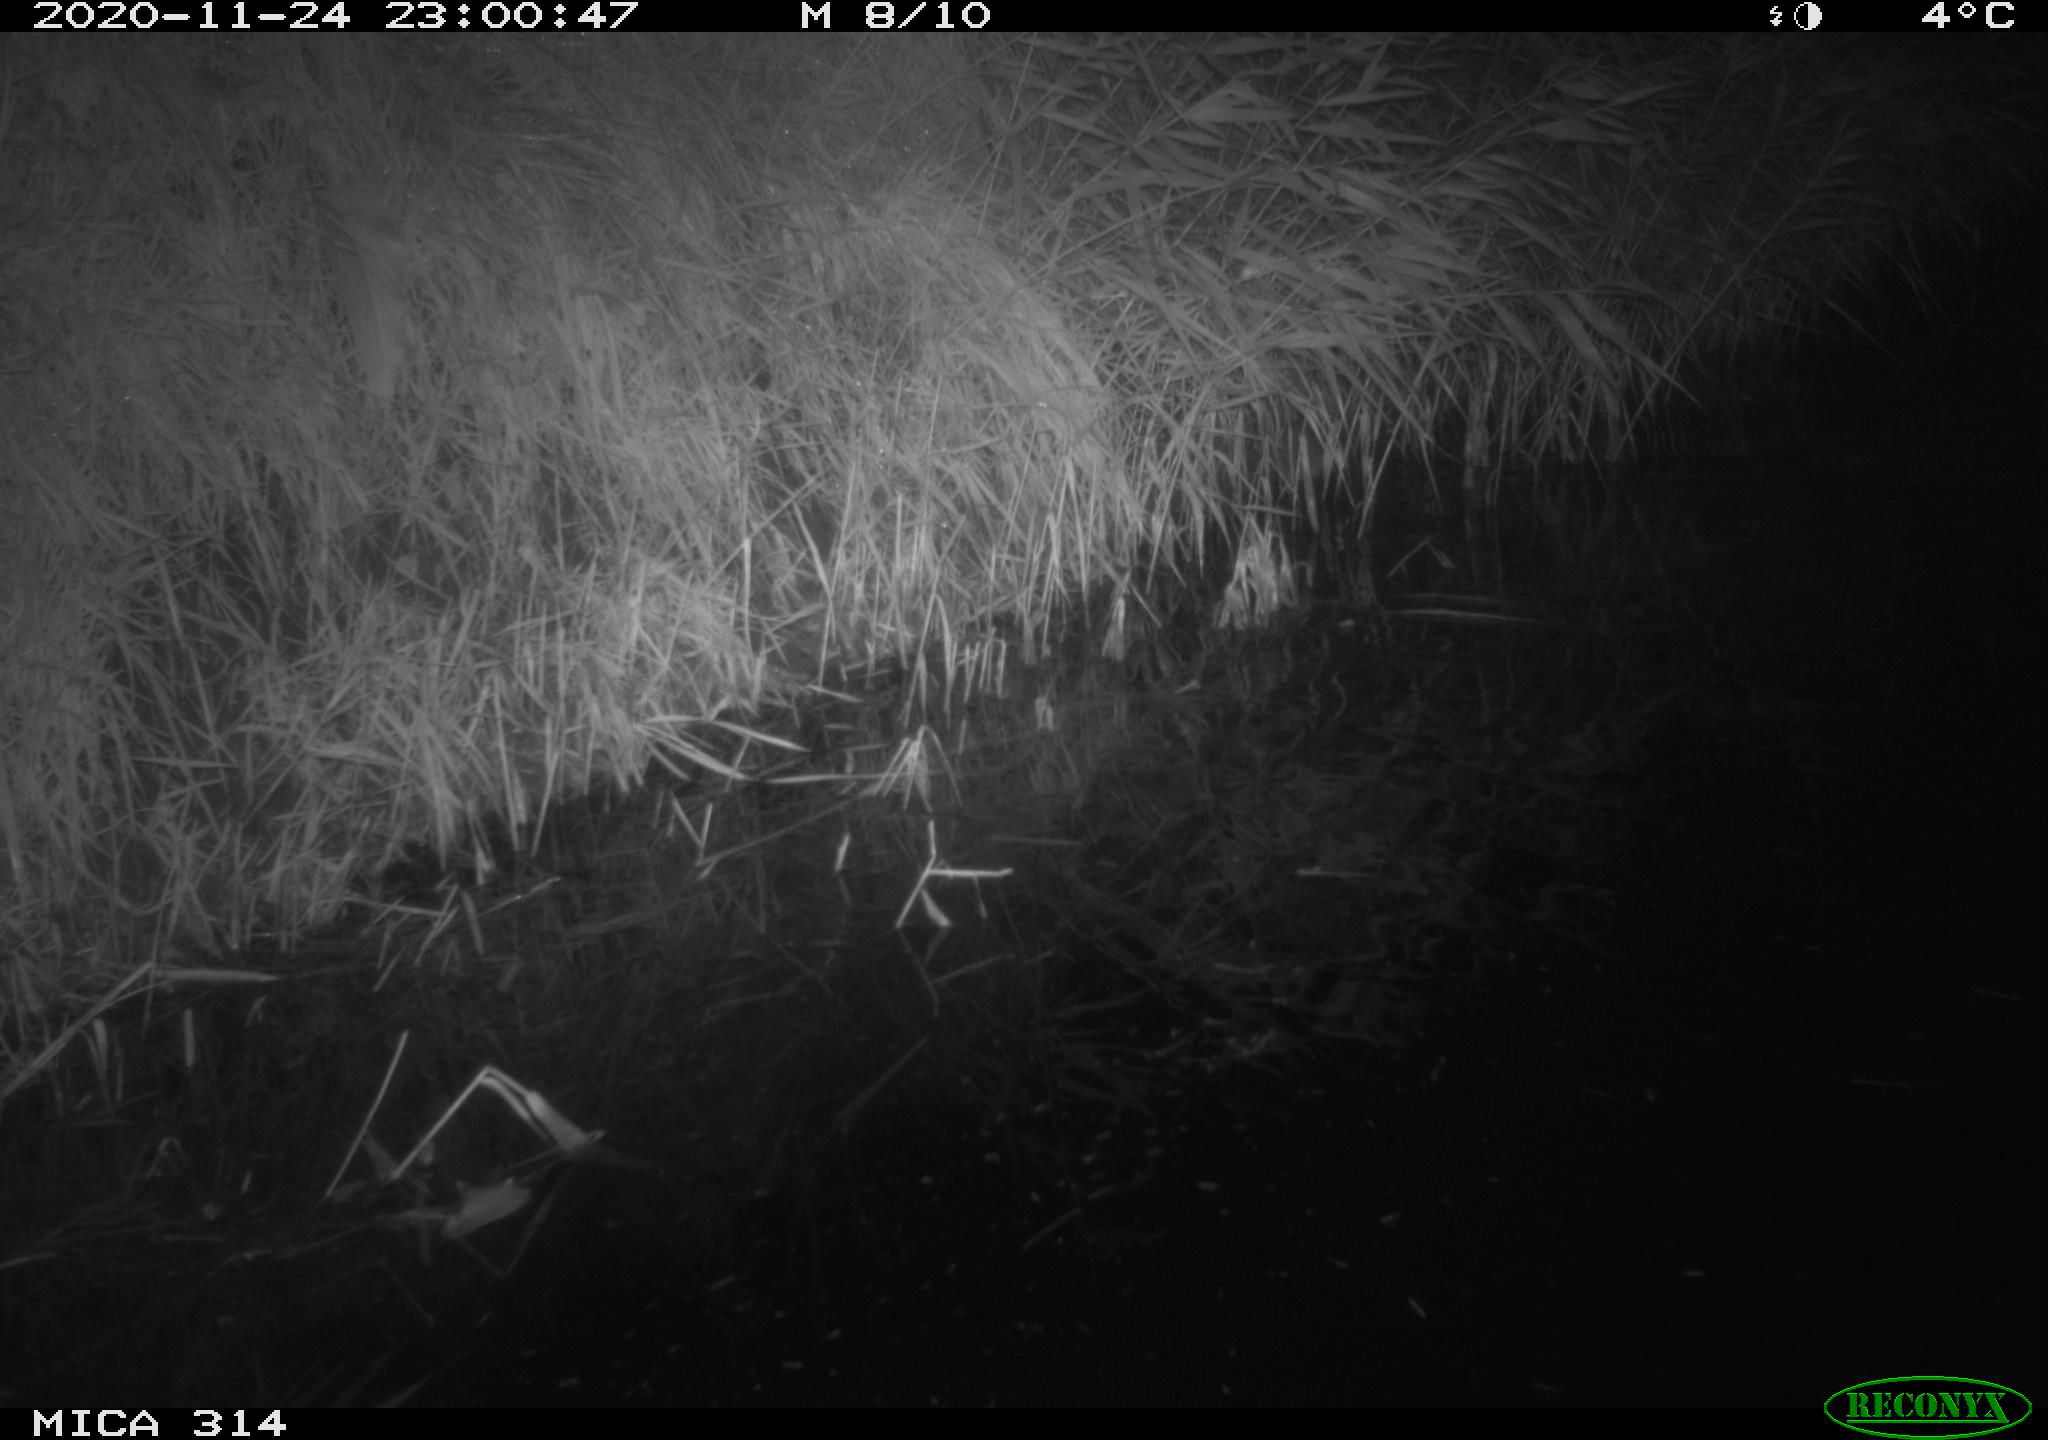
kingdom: Animalia
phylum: Chordata
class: Mammalia
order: Rodentia
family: Muridae
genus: Rattus
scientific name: Rattus norvegicus
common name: Brown rat
